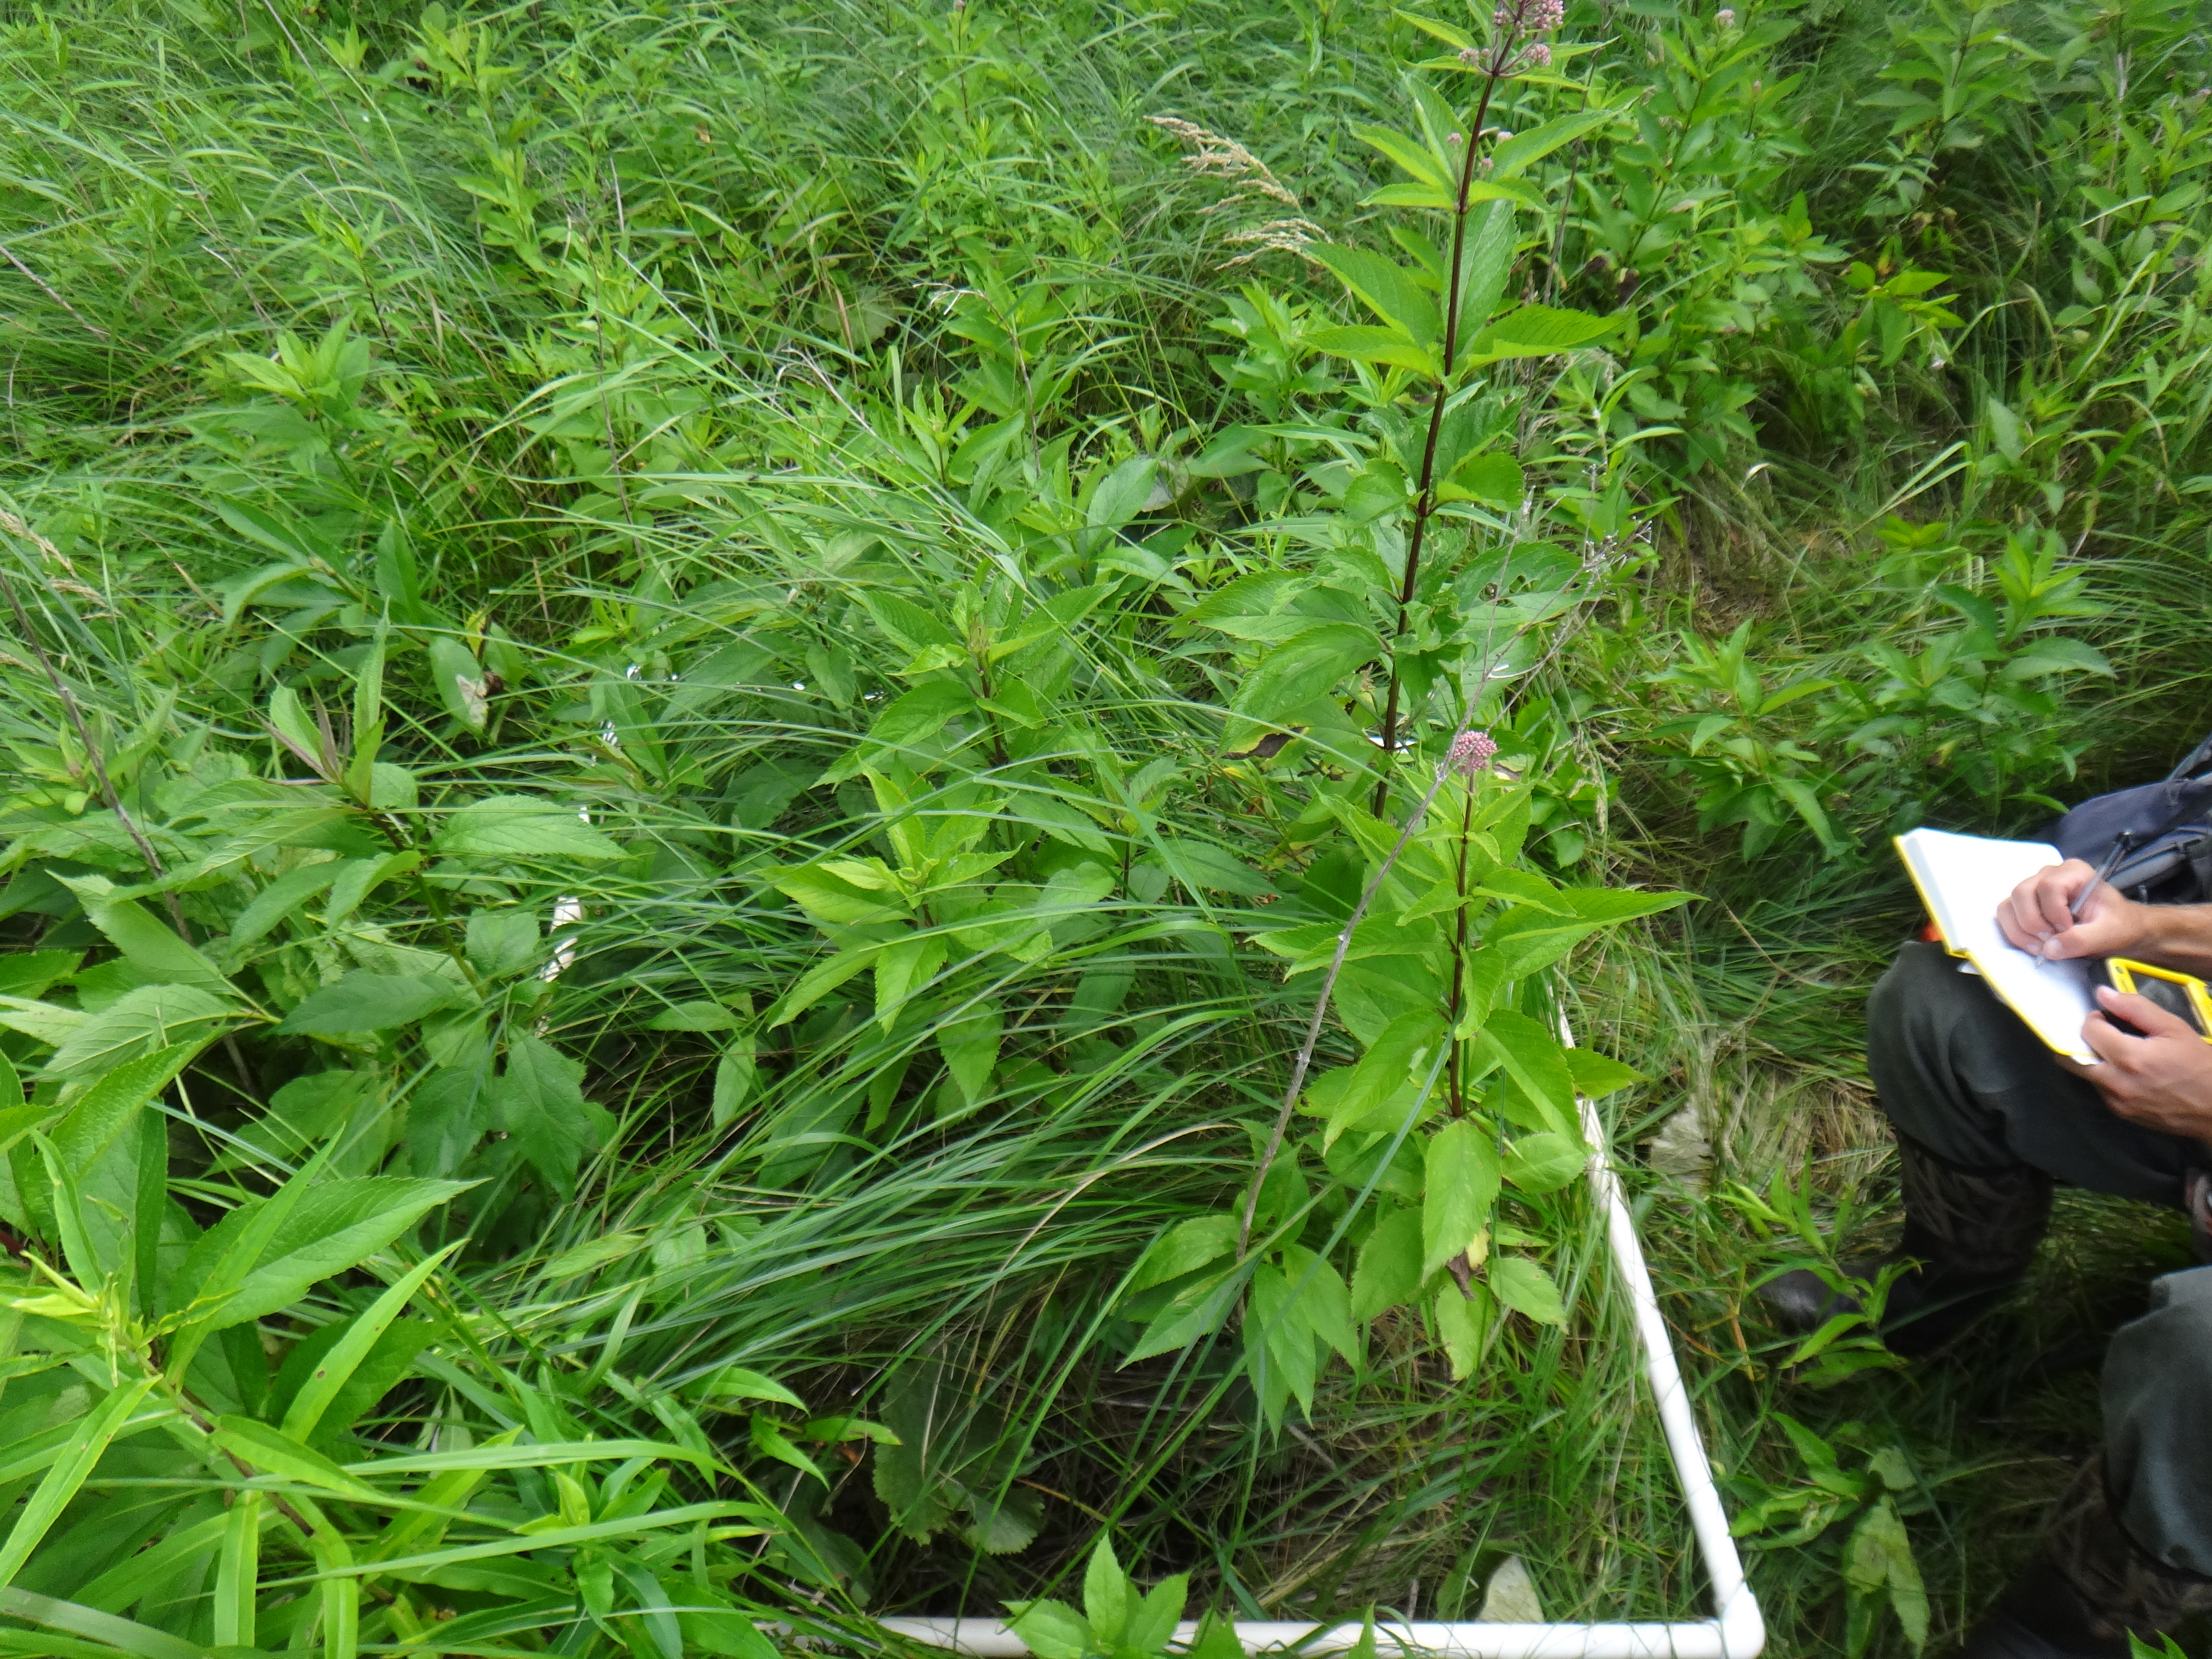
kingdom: Plantae
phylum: Tracheophyta
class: Magnoliopsida
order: Gentianales
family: Rubiaceae
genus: Galium
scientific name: Galium asprellum
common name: Rough bedstraw
